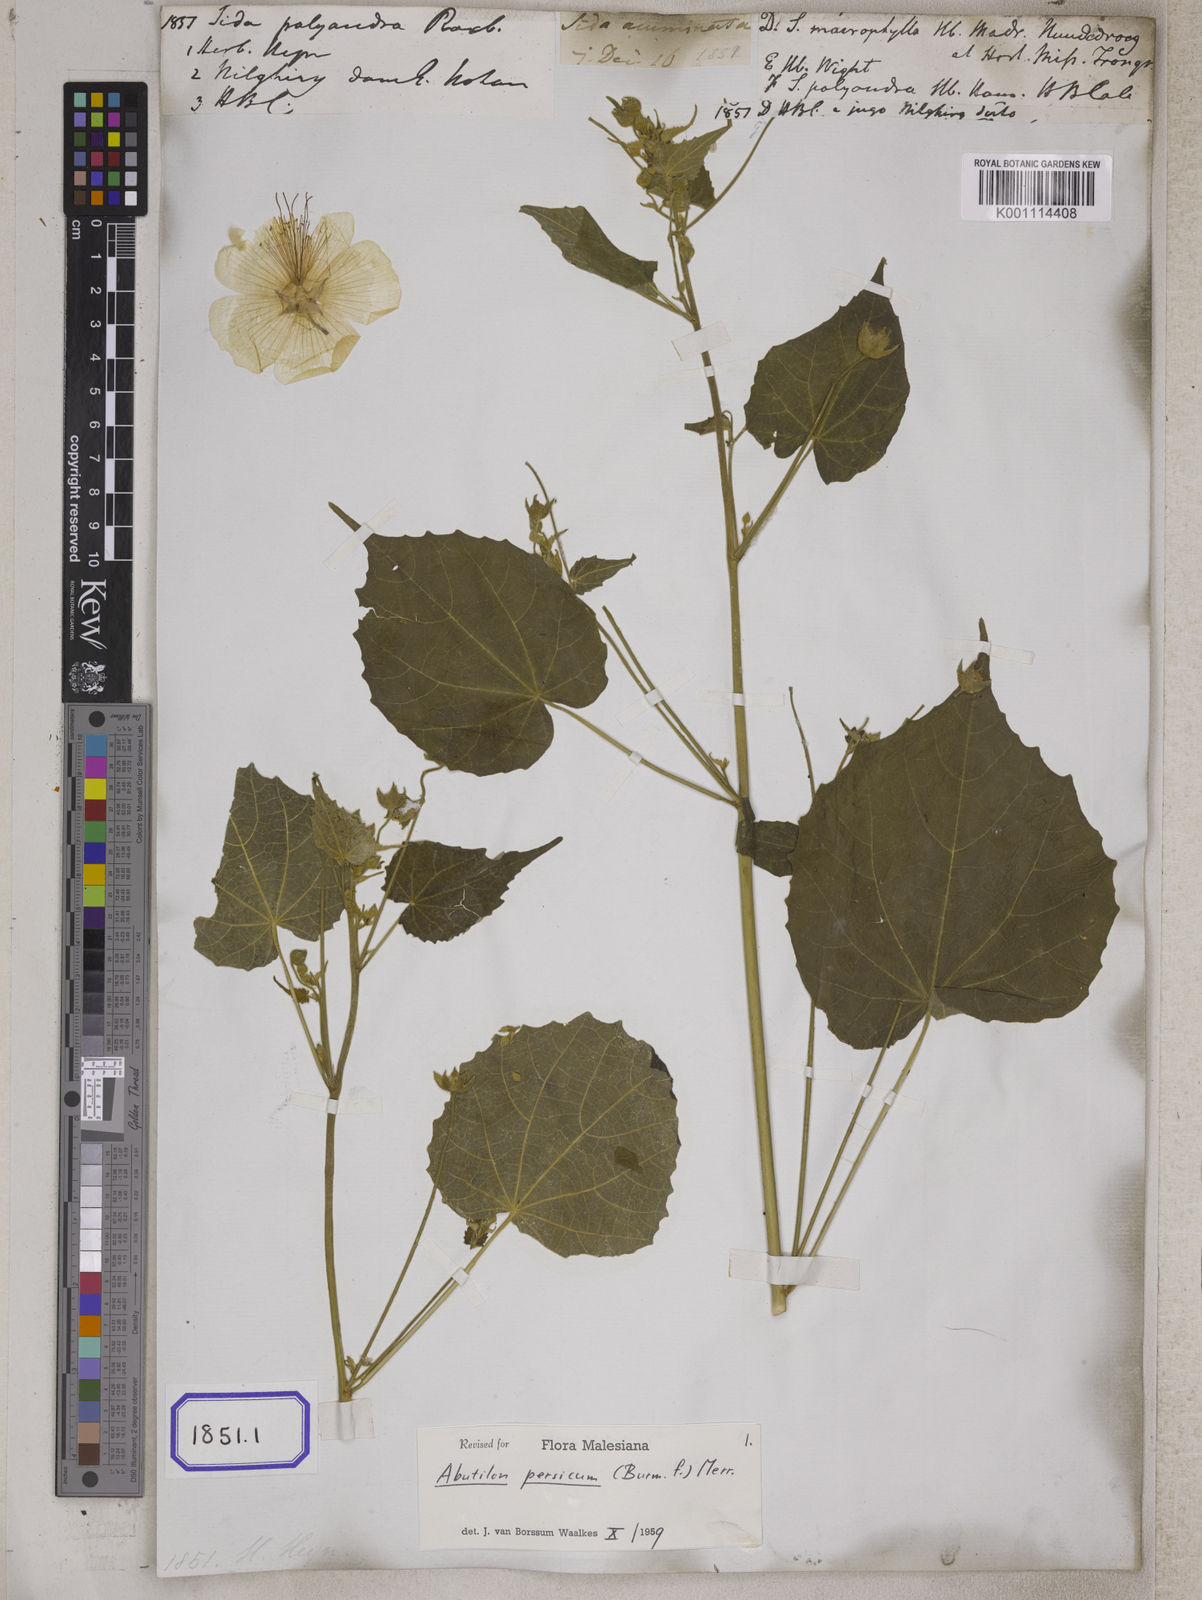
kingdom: Plantae
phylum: Tracheophyta
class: Magnoliopsida
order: Malvales
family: Malvaceae
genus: Abutilon
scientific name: Abutilon persicum
